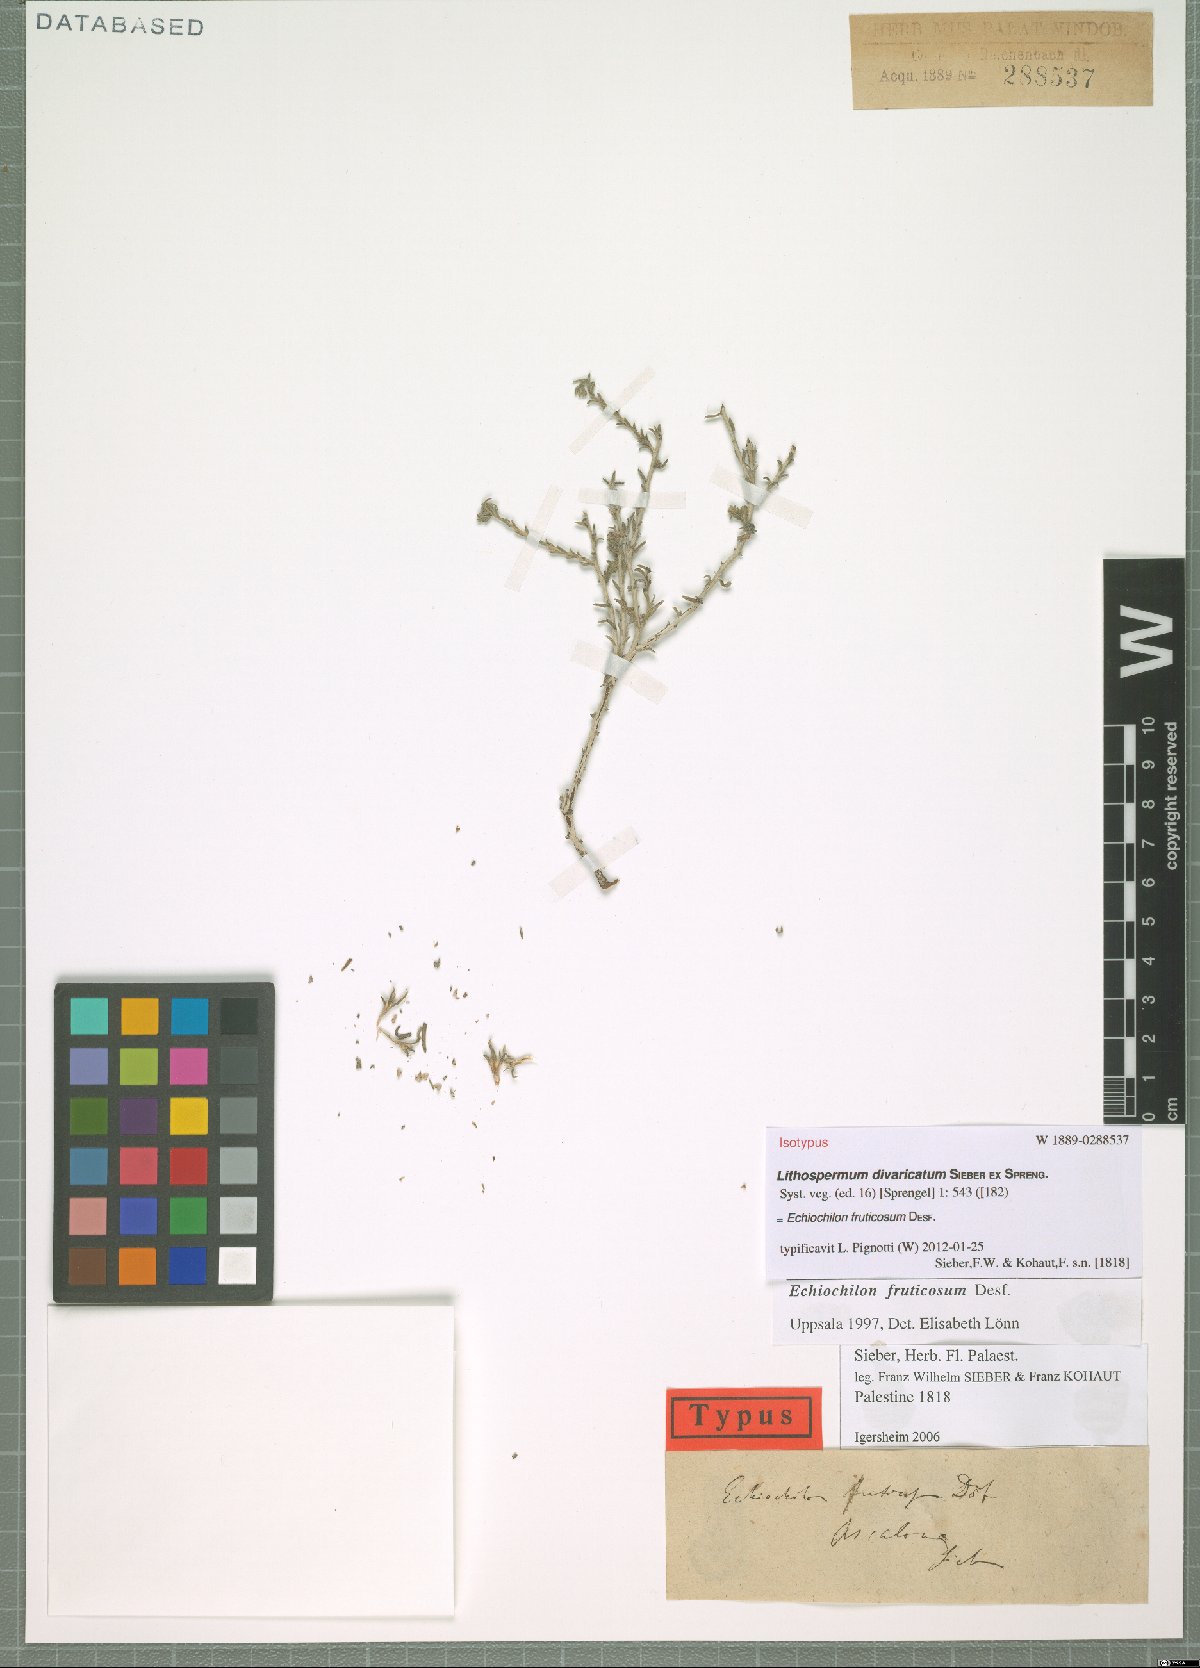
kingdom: Plantae
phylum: Tracheophyta
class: Magnoliopsida
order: Boraginales
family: Boraginaceae
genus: Echiochilon
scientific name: Echiochilon fruticosum
